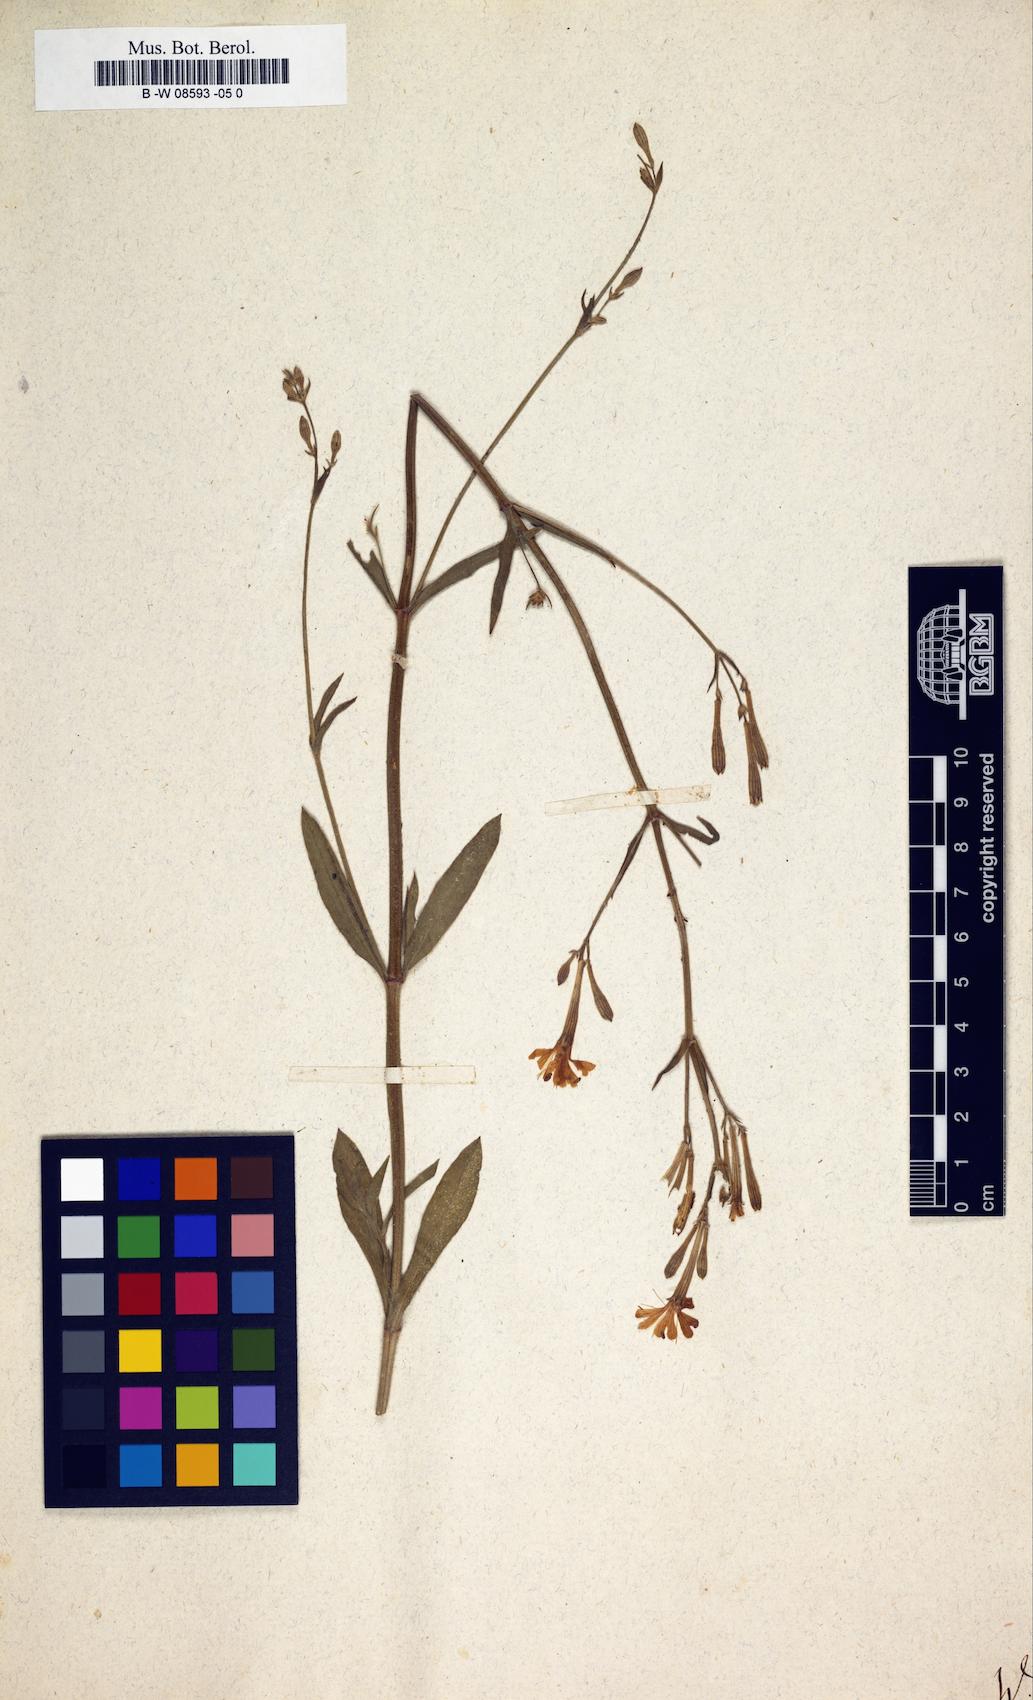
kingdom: Animalia
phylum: Cnidaria
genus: Cucubalus
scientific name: Cucubalus
